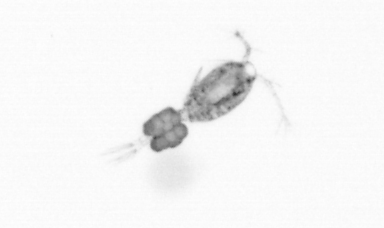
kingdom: Animalia
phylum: Arthropoda
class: Copepoda
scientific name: Copepoda
